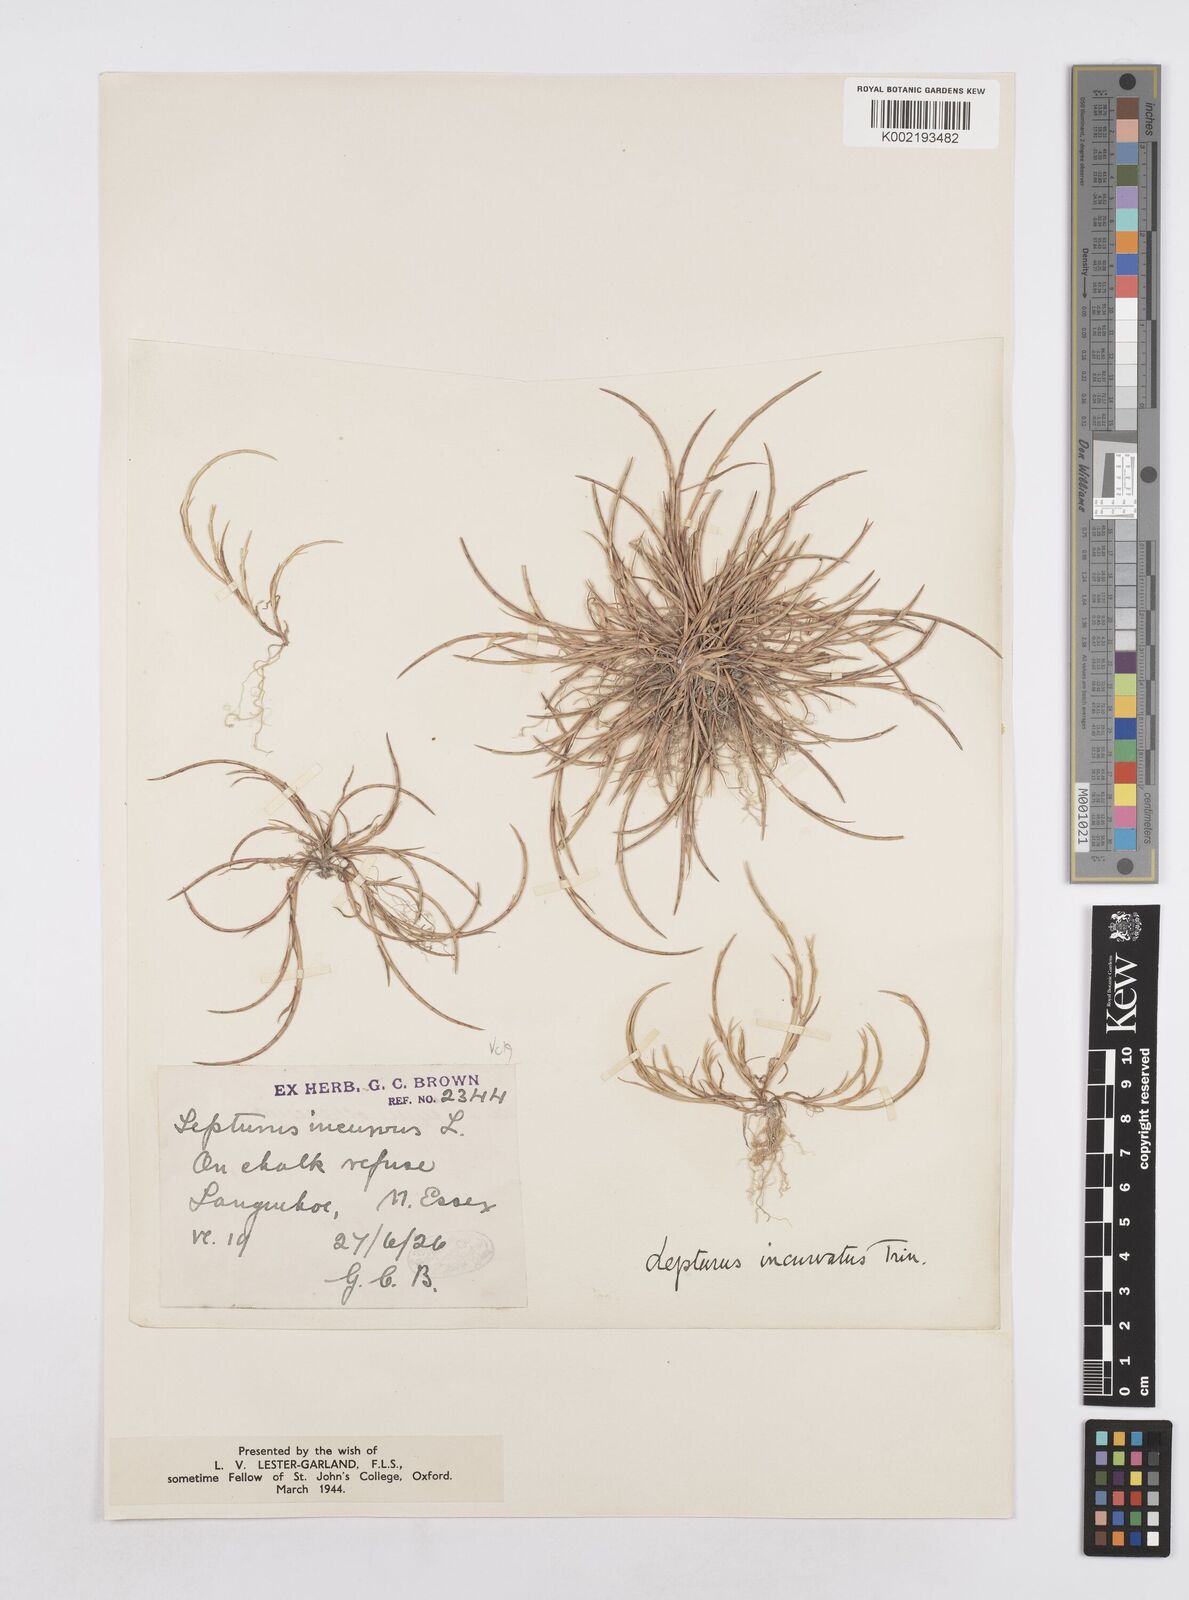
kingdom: Plantae
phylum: Tracheophyta
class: Liliopsida
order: Poales
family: Poaceae
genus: Parapholis
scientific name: Parapholis incurva
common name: Curved sicklegrass
